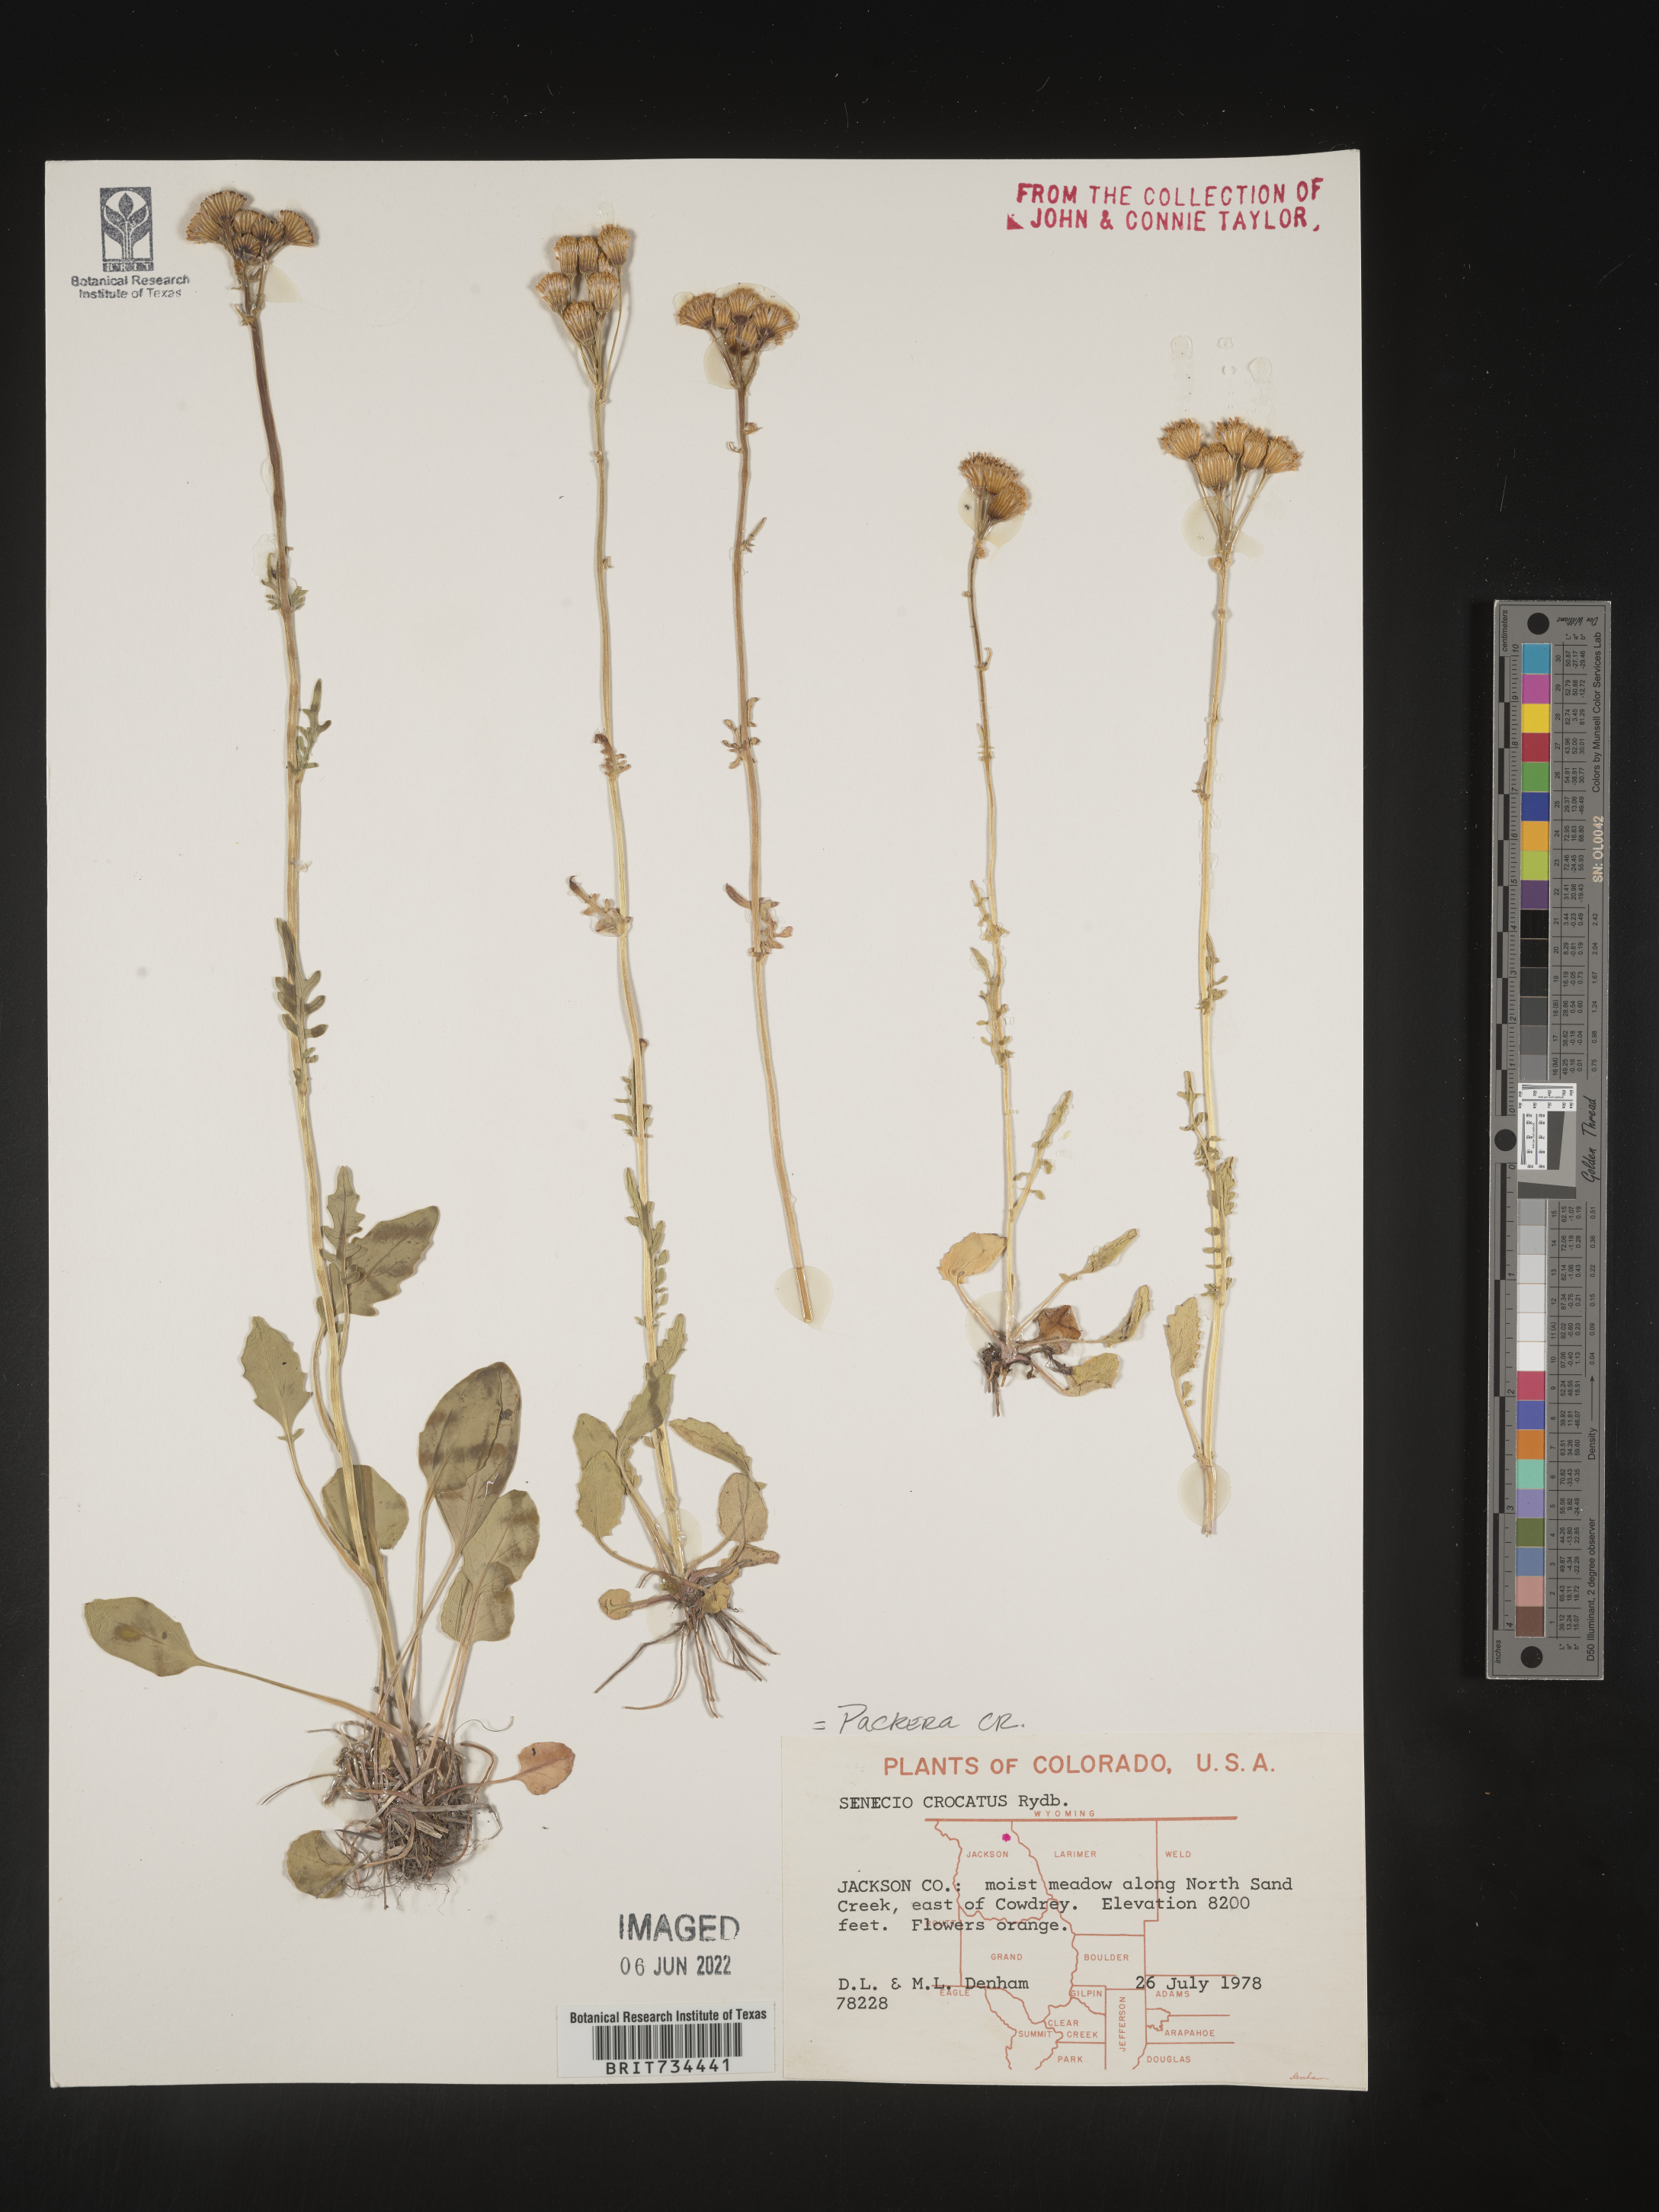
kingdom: Plantae
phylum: Tracheophyta
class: Magnoliopsida
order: Asterales
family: Asteraceae
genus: Packera
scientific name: Packera
